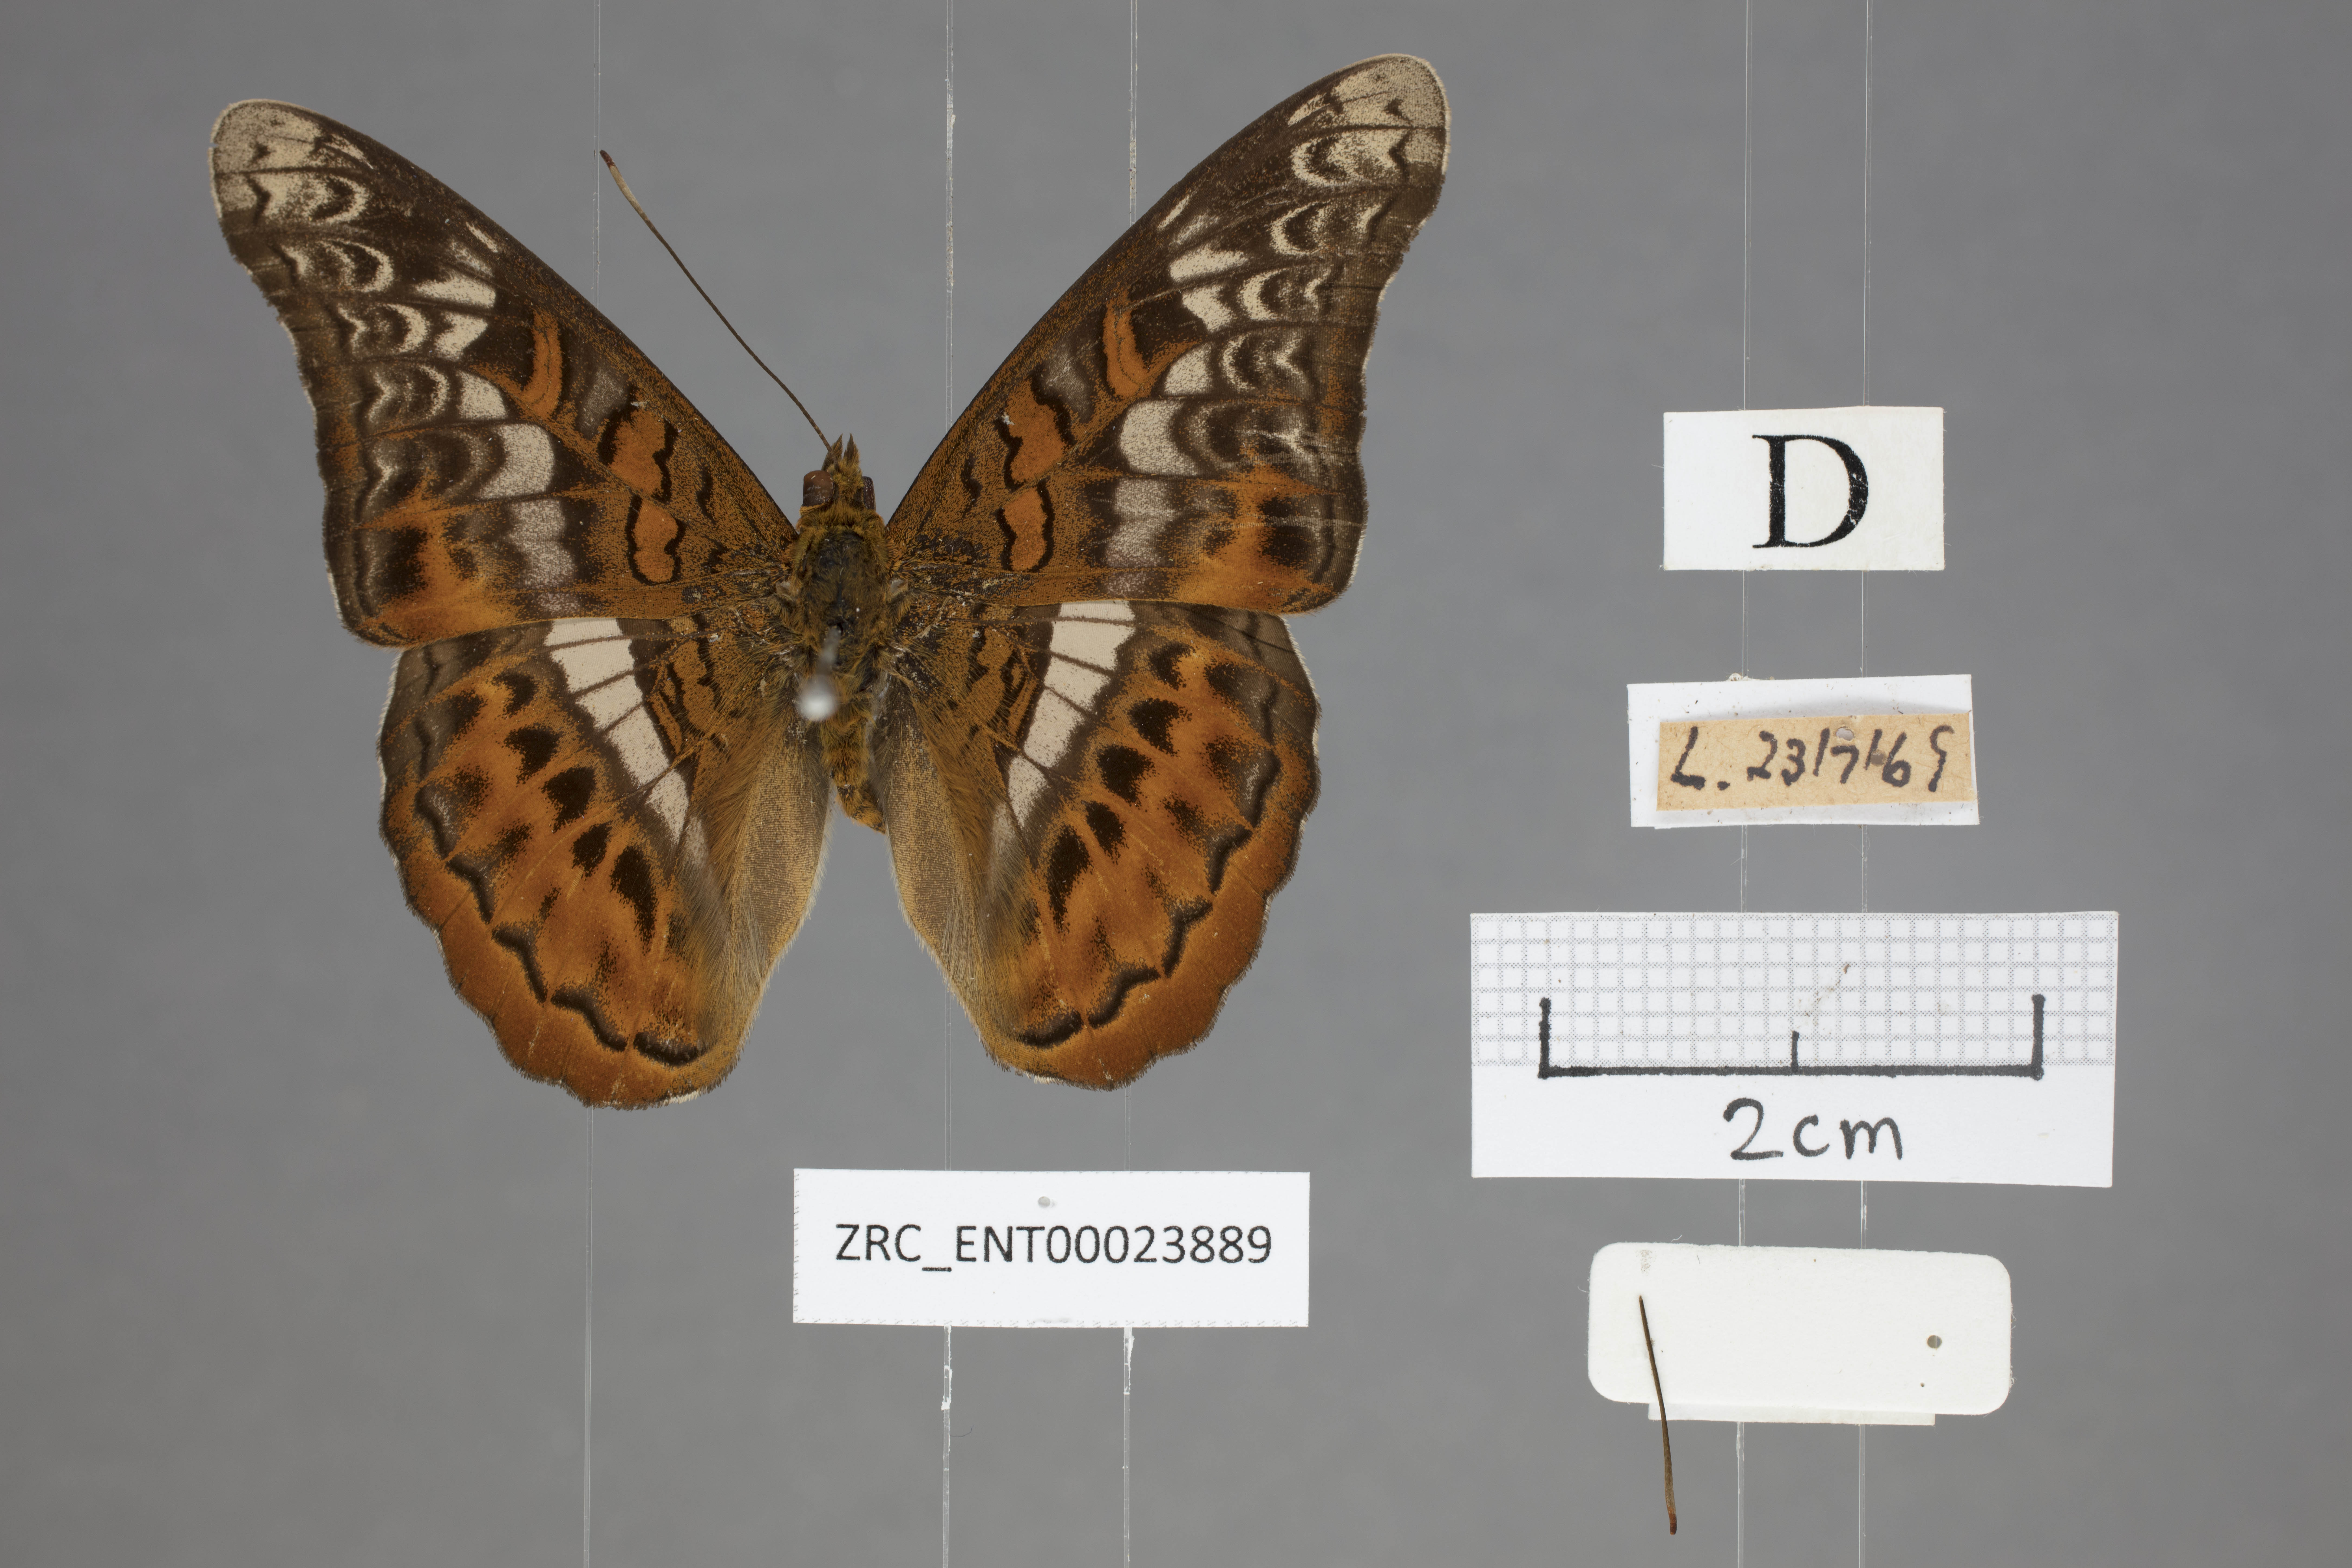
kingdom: Animalia
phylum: Arthropoda
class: Insecta
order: Lepidoptera
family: Nymphalidae
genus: Lebadea
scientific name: Lebadea martha
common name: Knight
